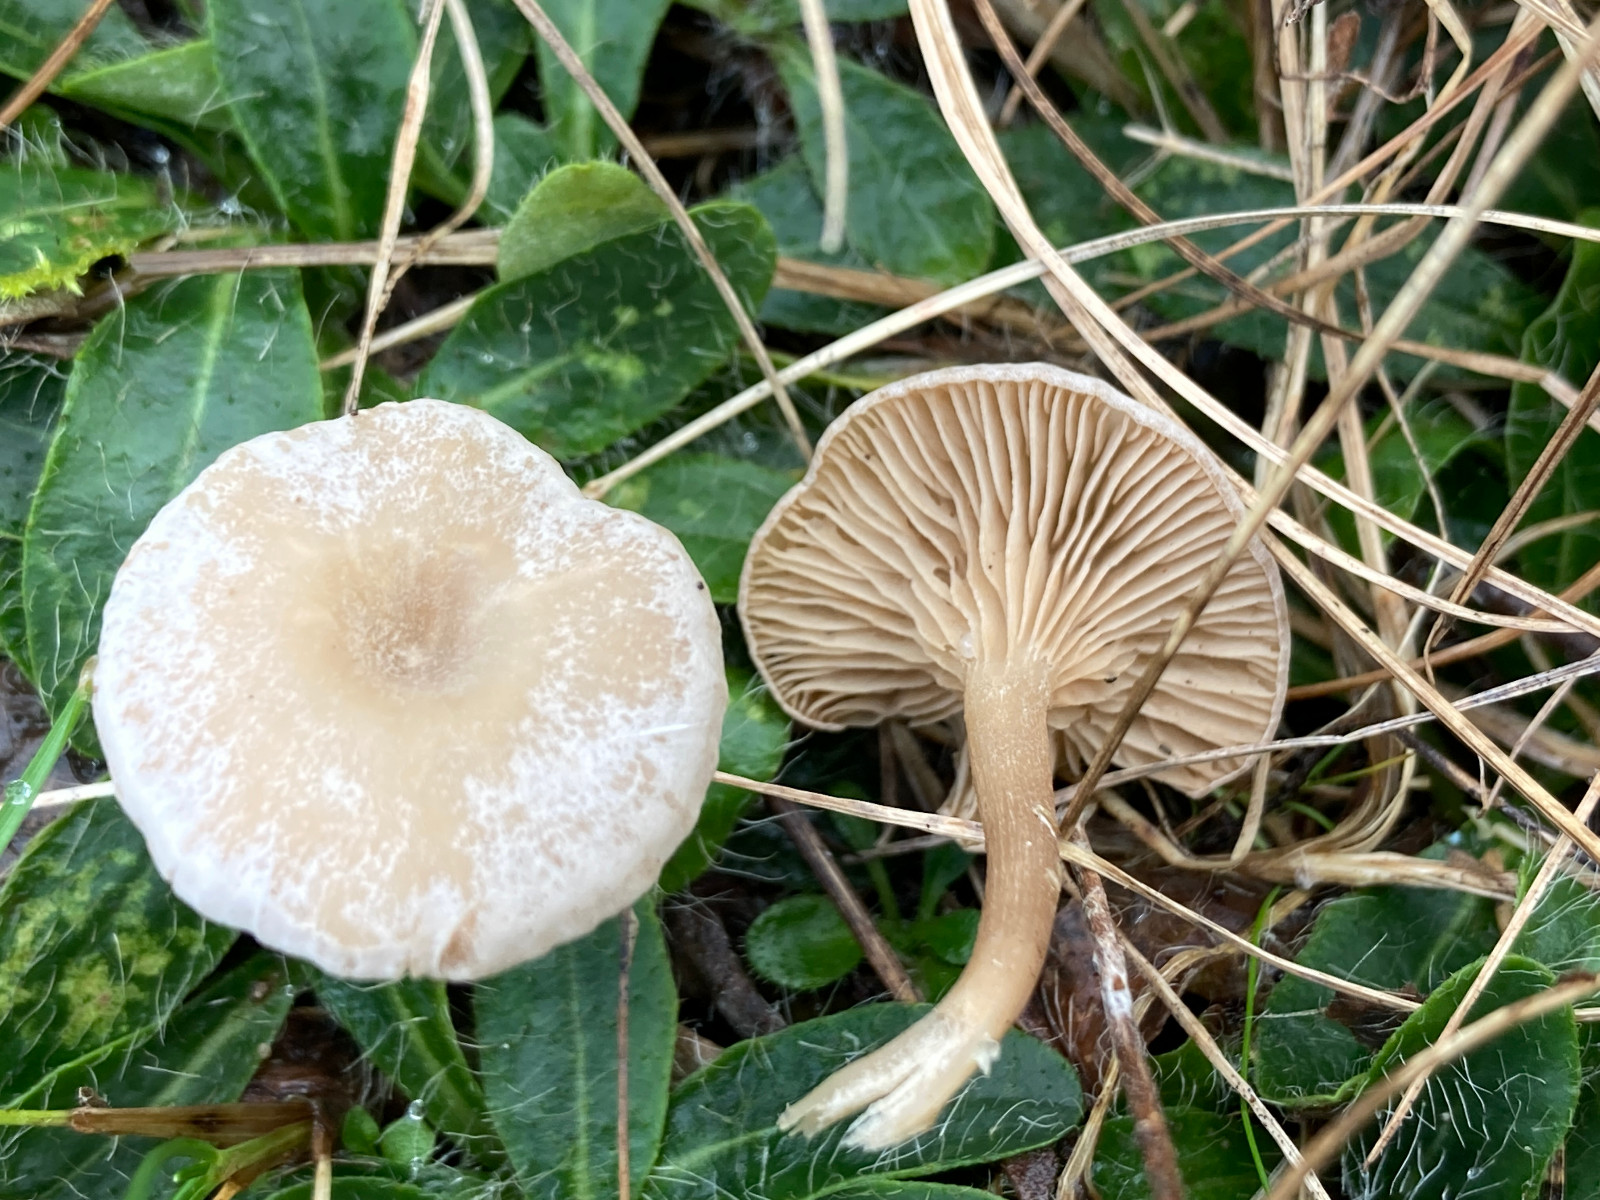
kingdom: Fungi
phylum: Basidiomycota
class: Agaricomycetes
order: Agaricales
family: Entolomataceae
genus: Clitopilopsis
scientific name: Clitopilopsis hirneola
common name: grå troldhat
